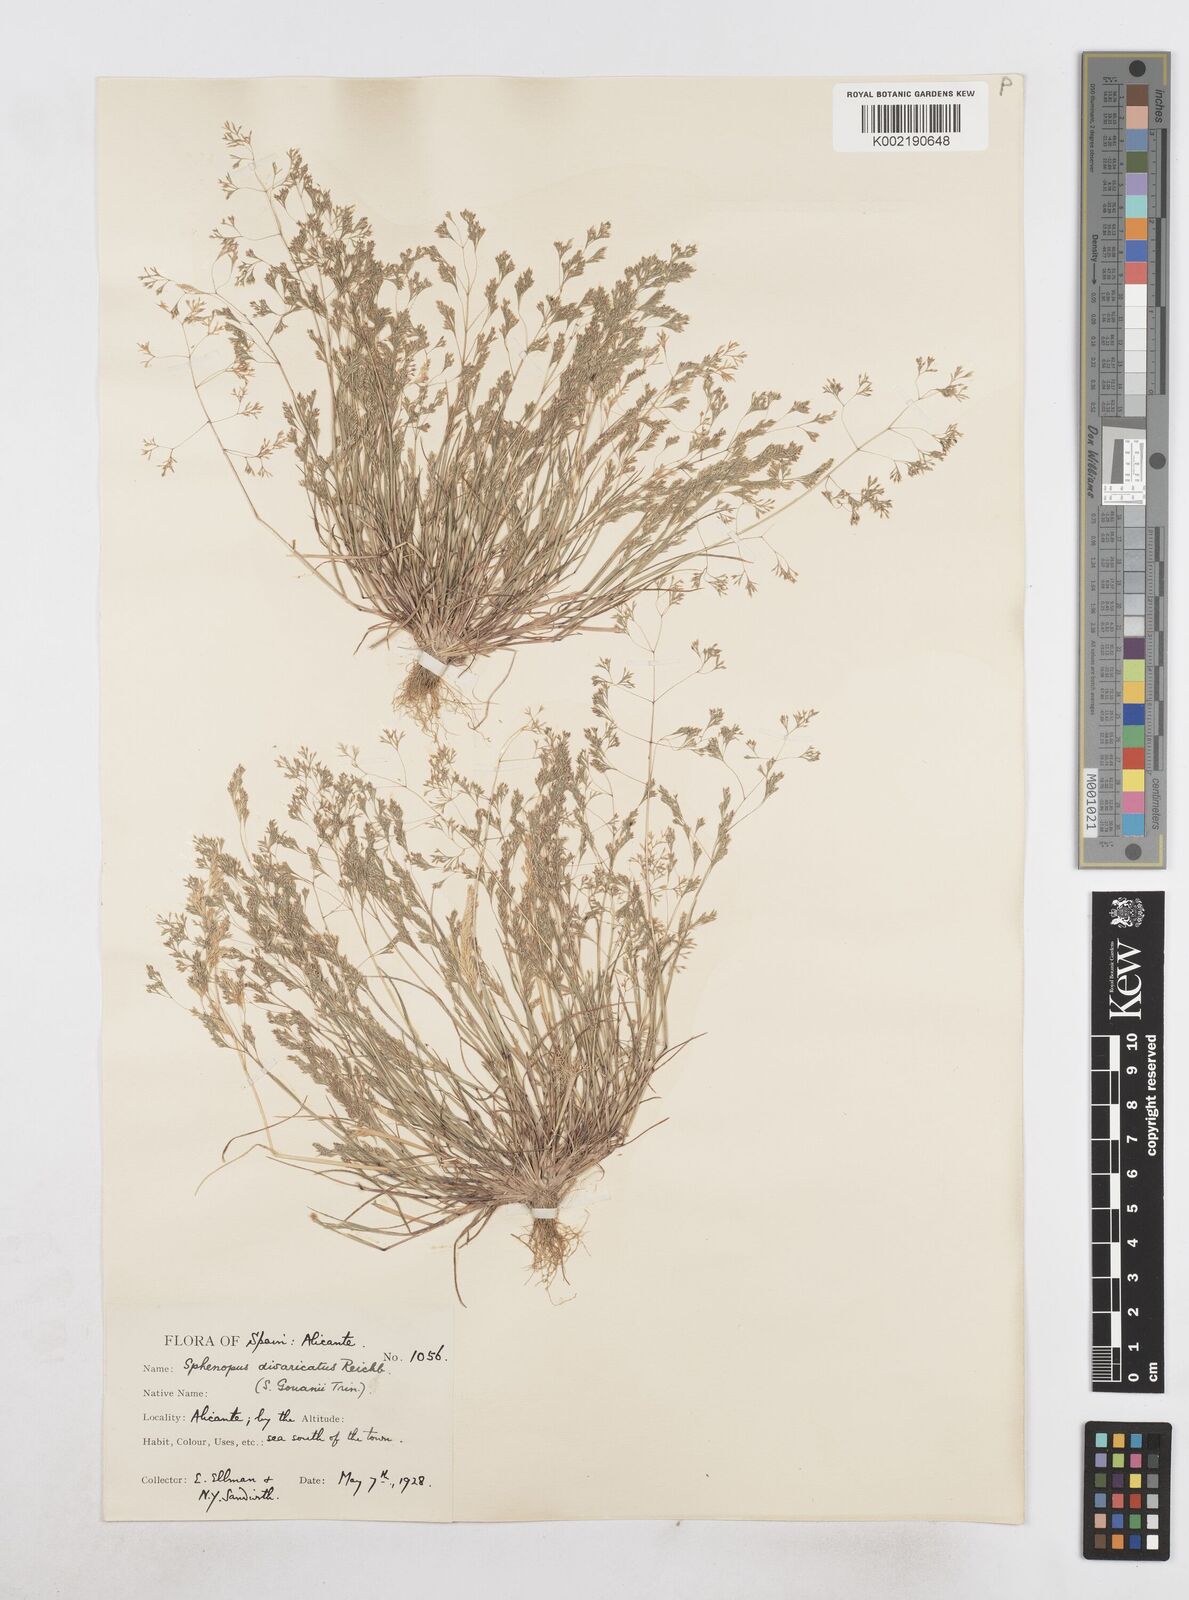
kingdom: Plantae
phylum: Tracheophyta
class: Liliopsida
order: Poales
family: Poaceae
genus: Sphenopus
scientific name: Sphenopus divaricatus
